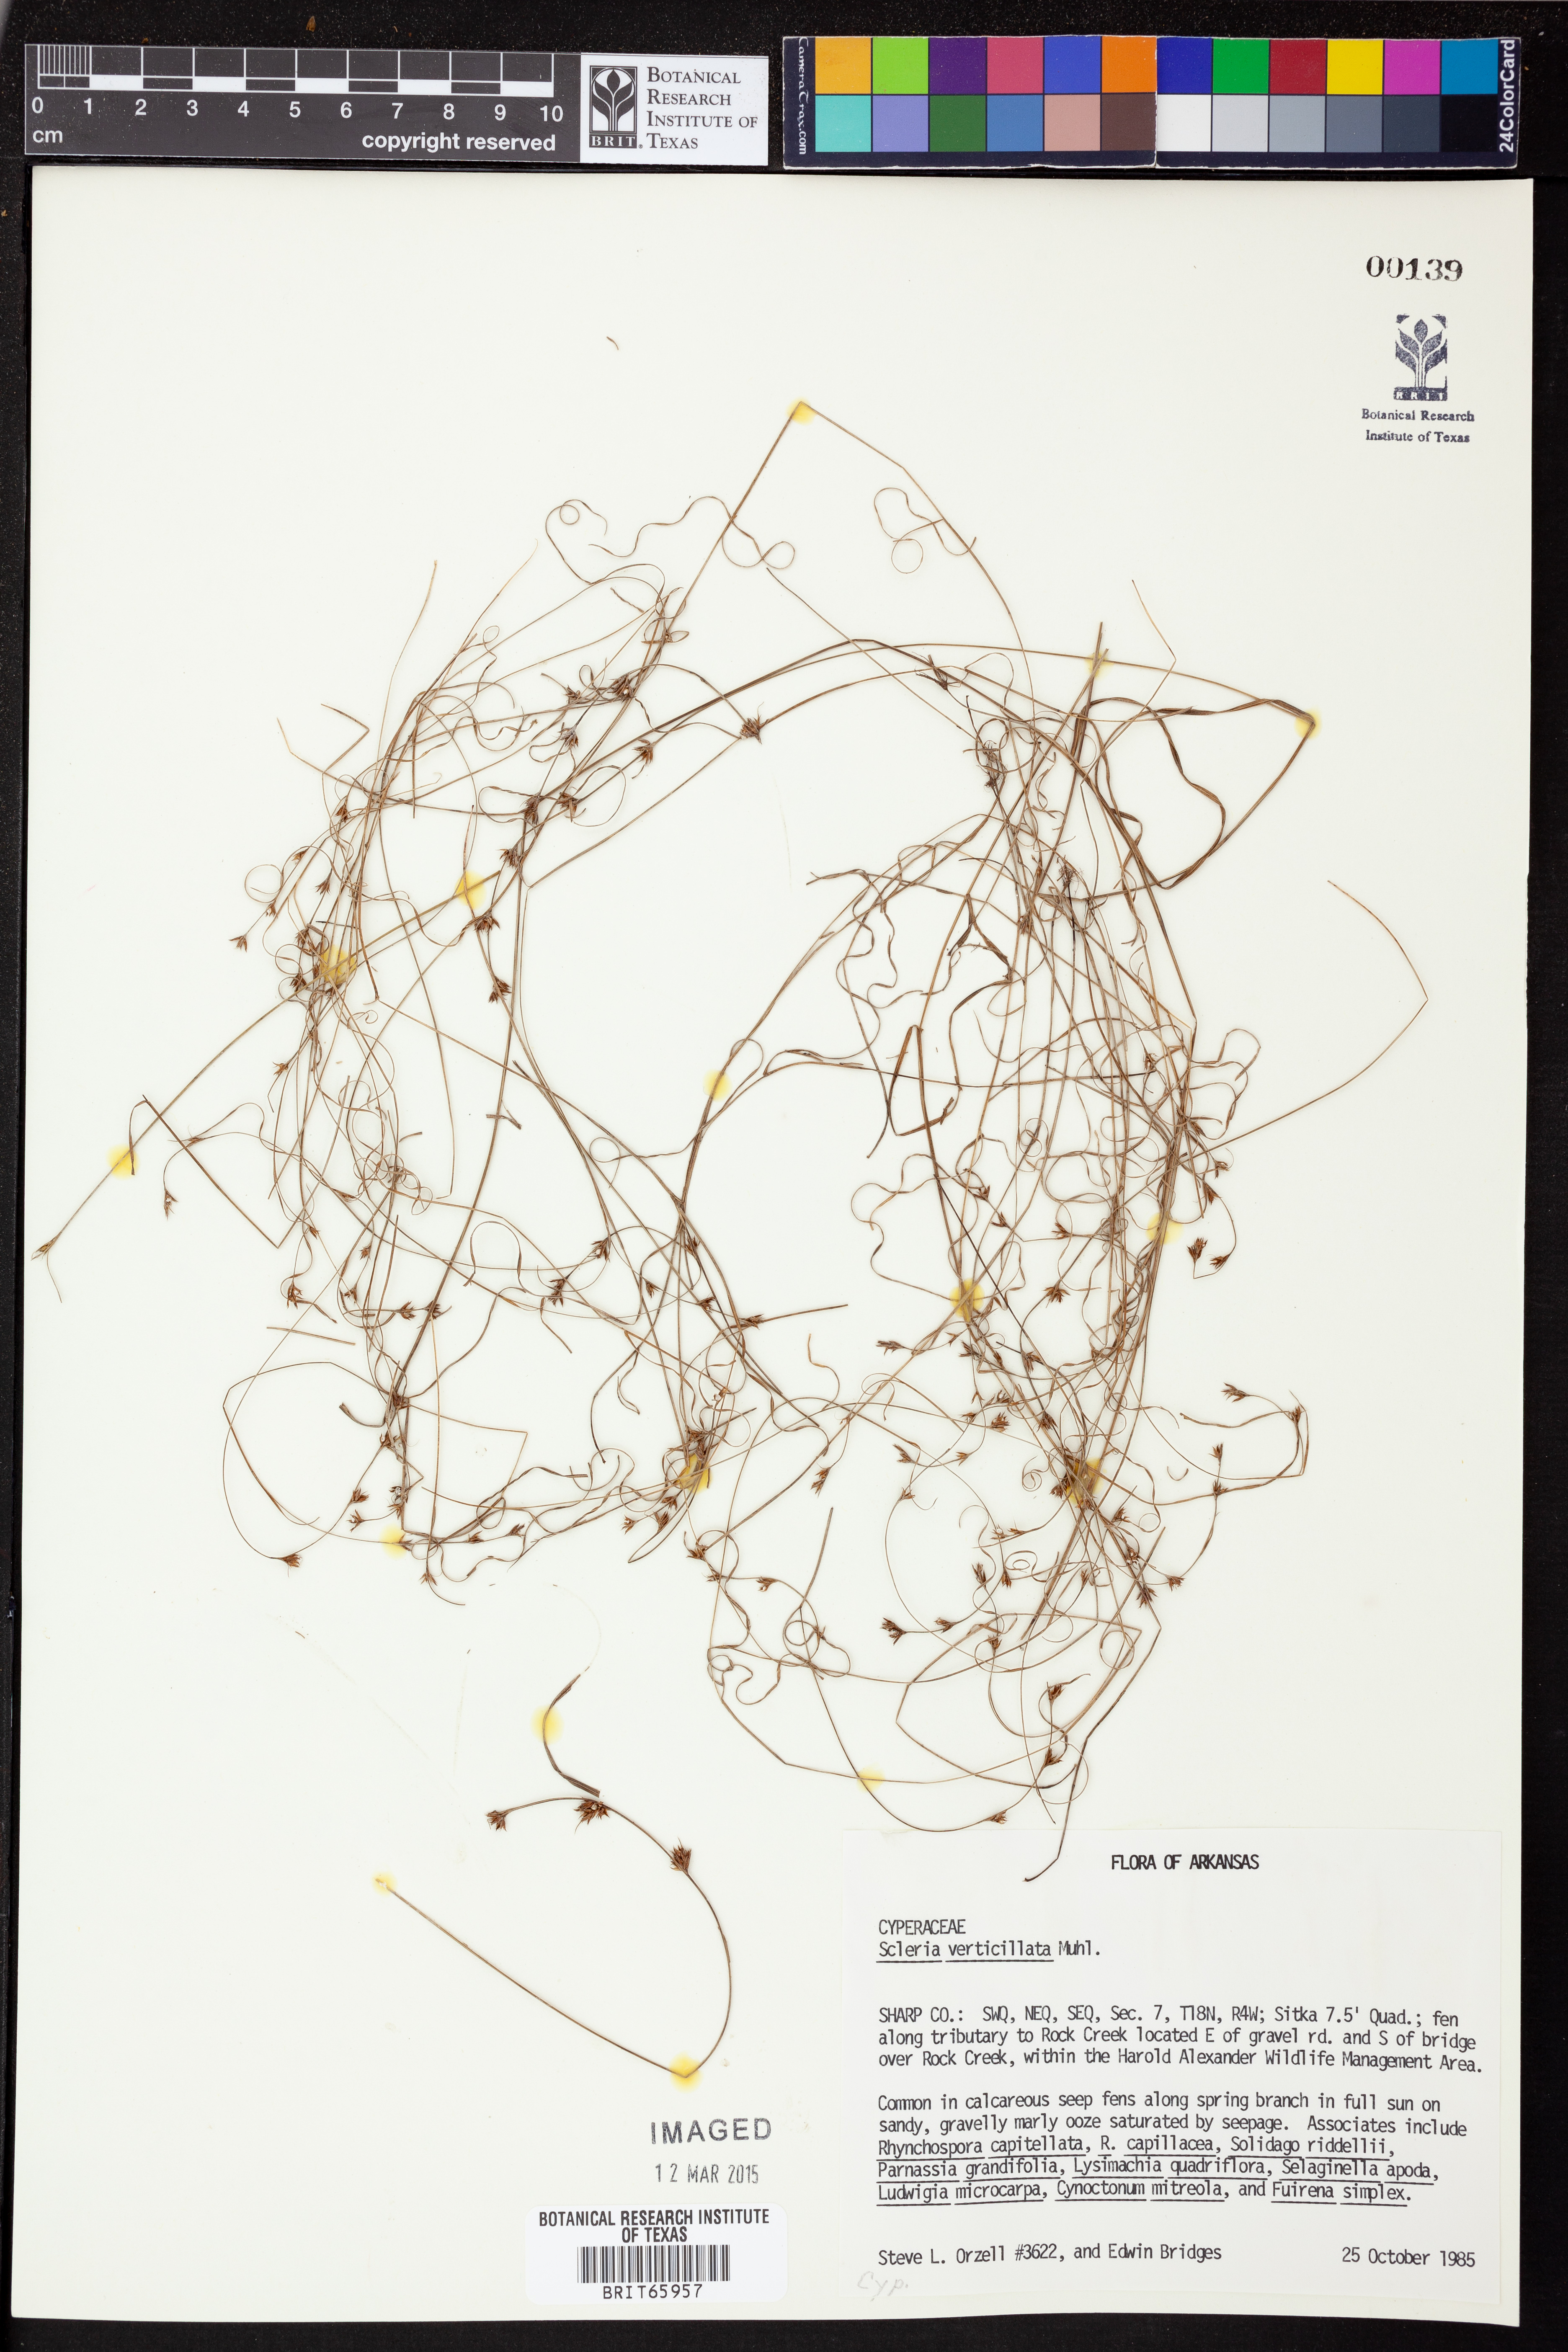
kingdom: Plantae
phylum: Tracheophyta
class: Liliopsida
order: Poales
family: Cyperaceae
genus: Scleria
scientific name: Scleria verticillata
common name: Low nutrush
